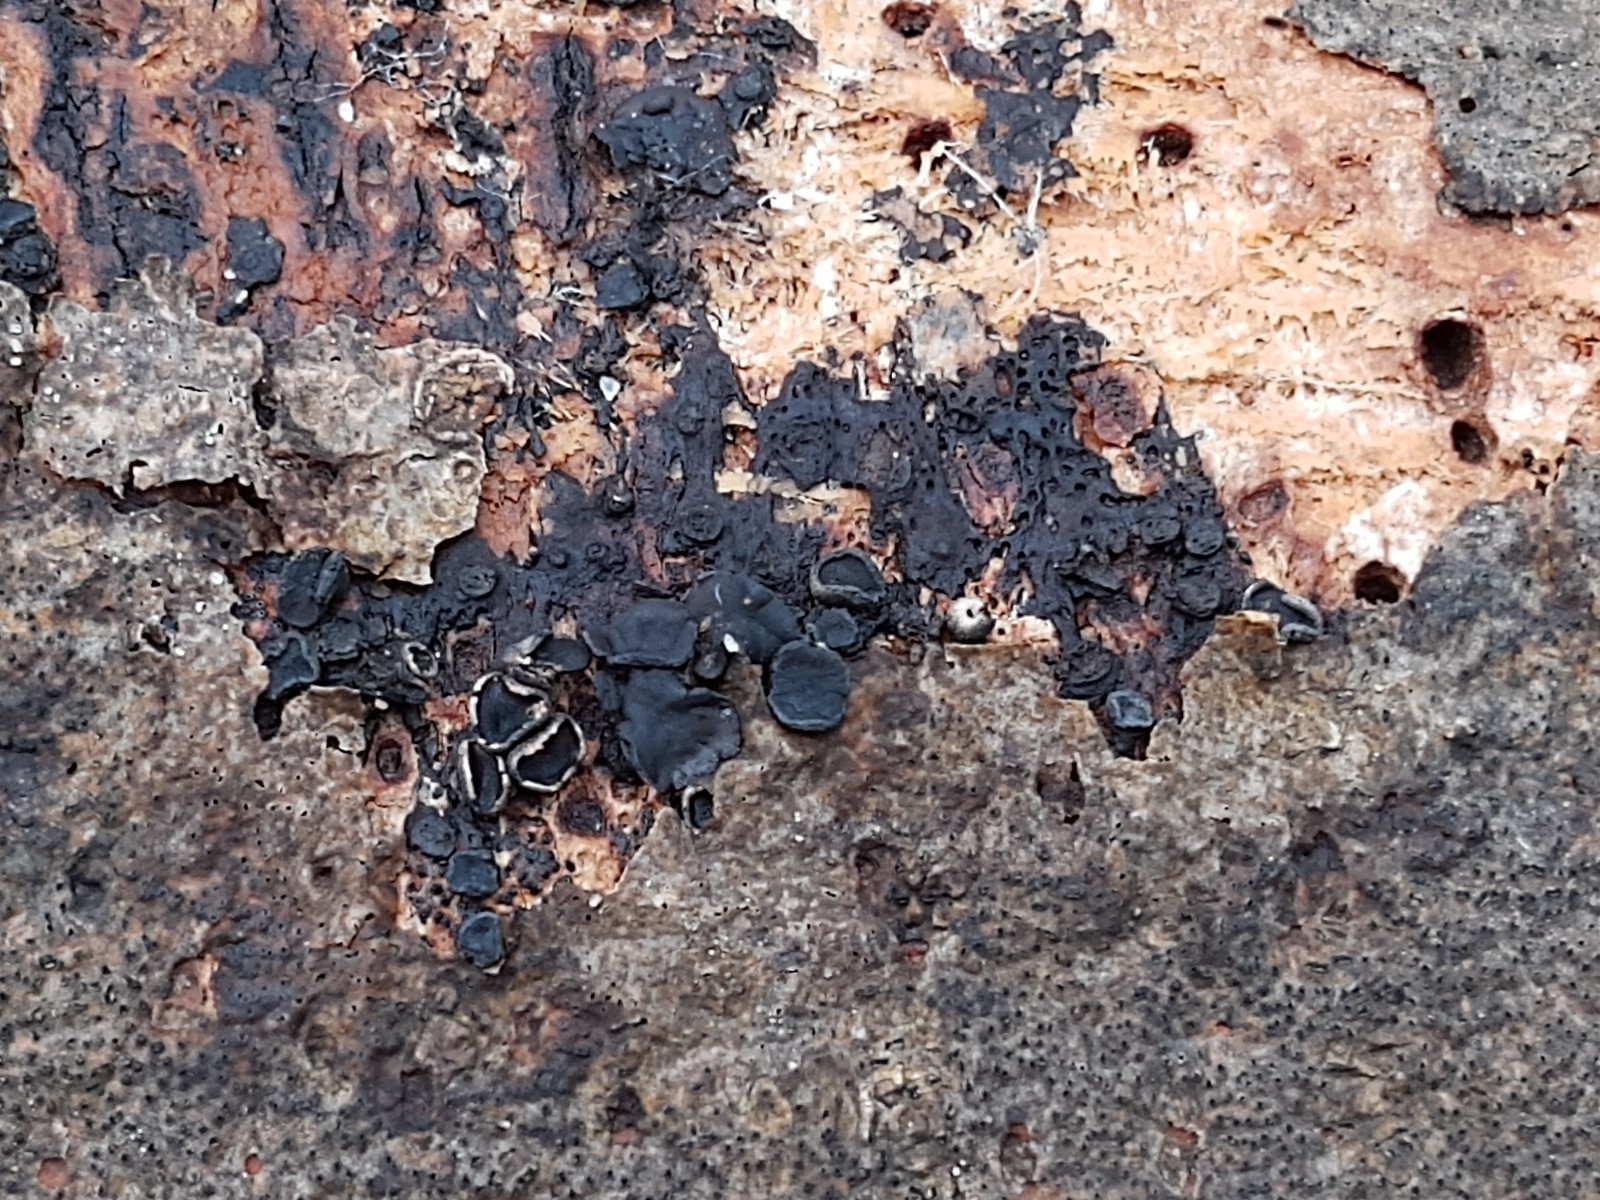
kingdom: Fungi
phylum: Ascomycota
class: Leotiomycetes
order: Helotiales
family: Sclerotiniaceae
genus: Sclerencoelia
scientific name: Sclerencoelia fraxinicola
